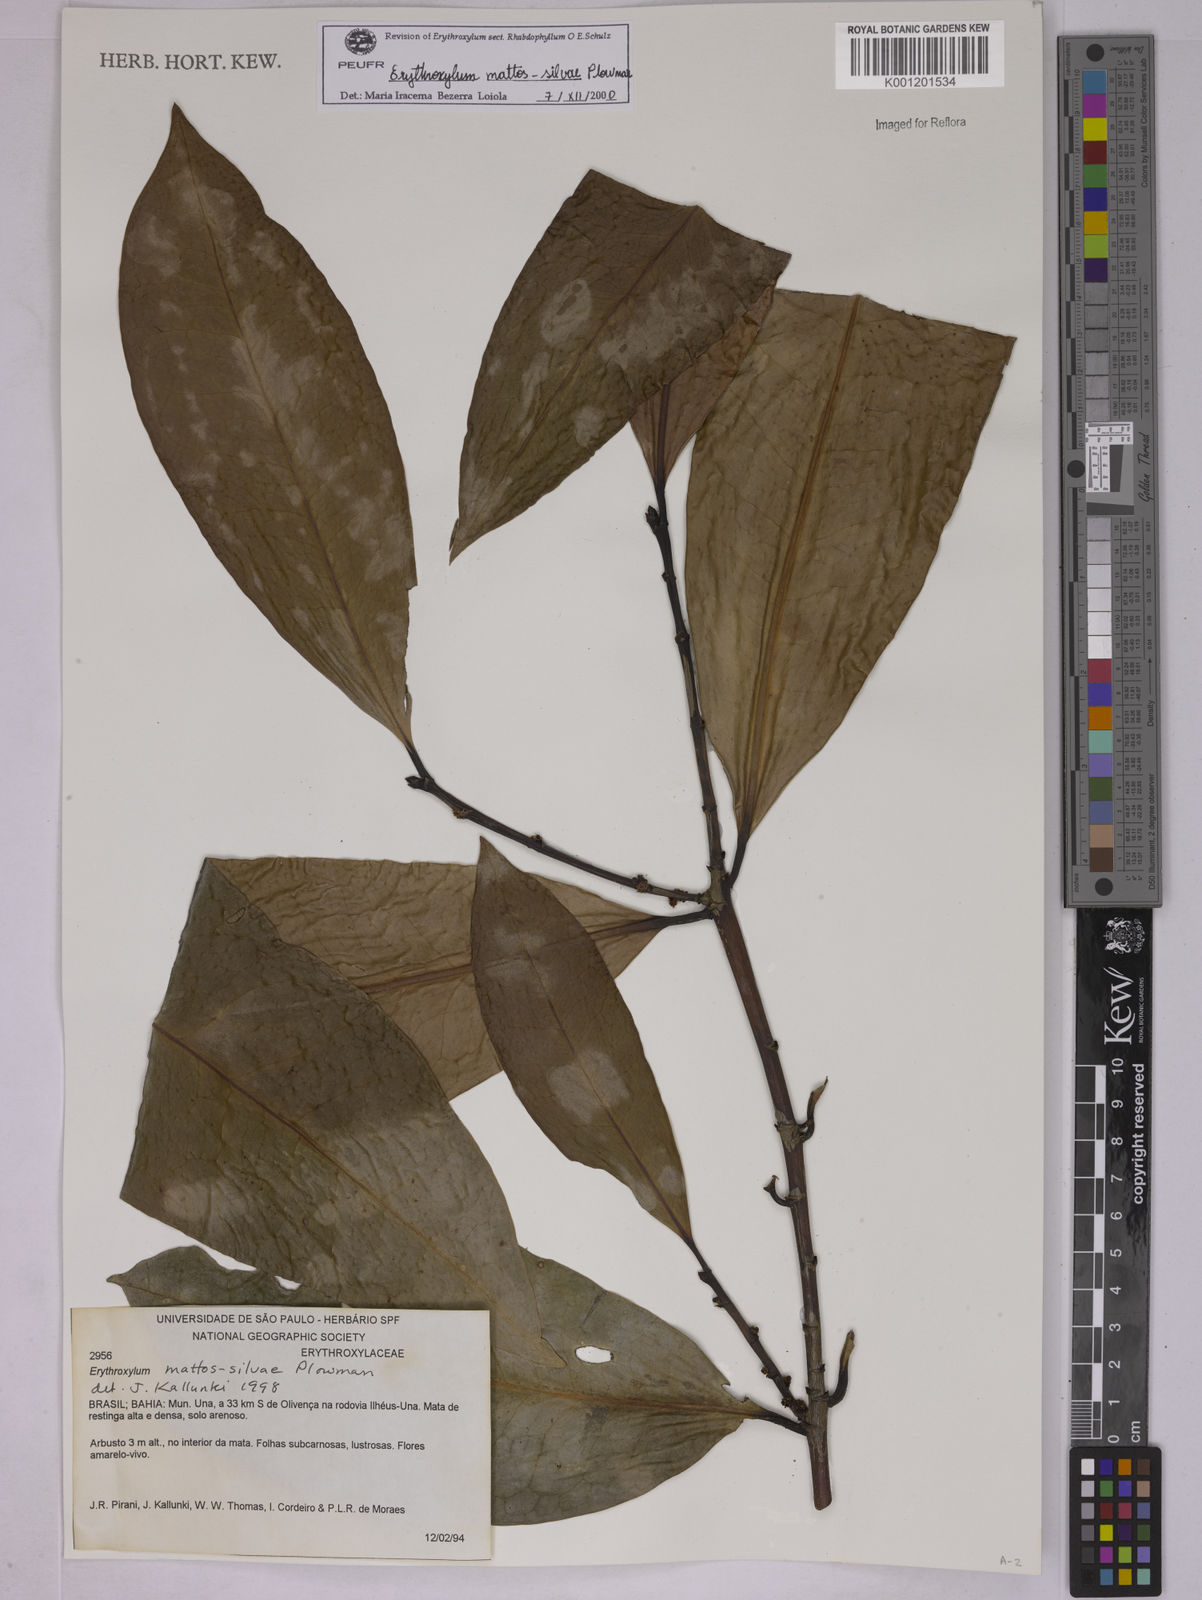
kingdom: Plantae
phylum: Tracheophyta
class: Magnoliopsida
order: Malpighiales
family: Erythroxylaceae
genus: Erythroxylum
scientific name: Erythroxylum mattos-silvae
